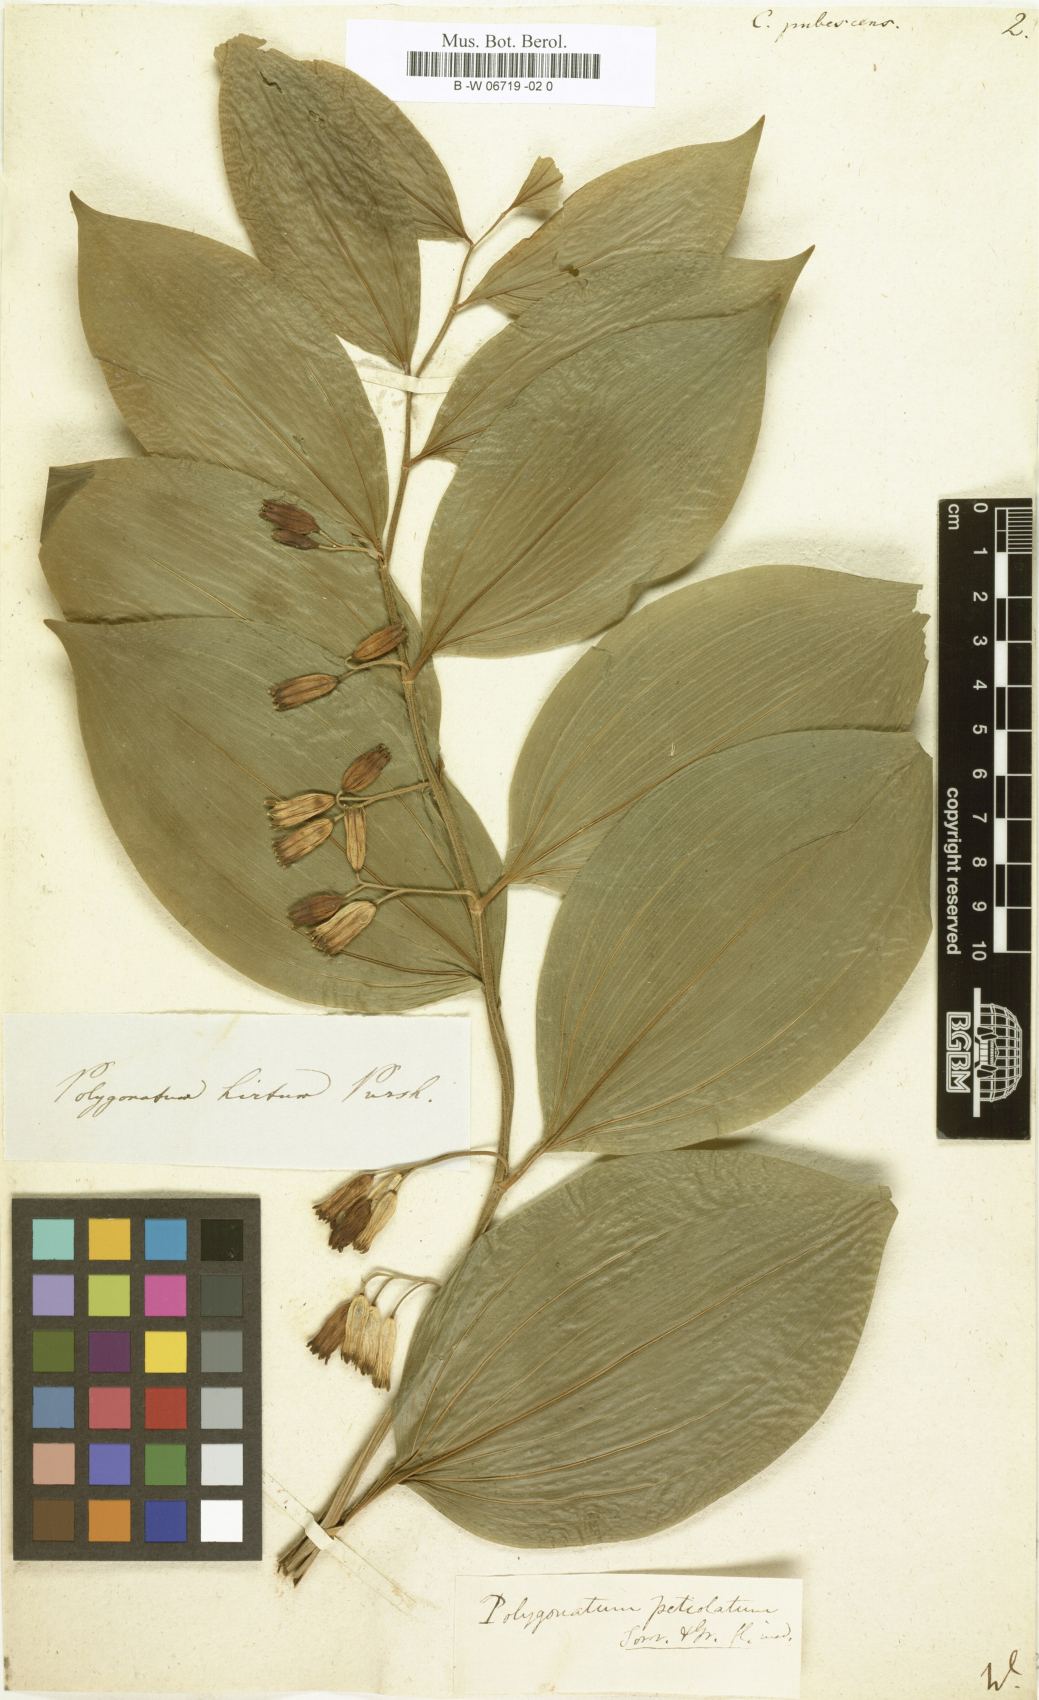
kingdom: Plantae
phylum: Tracheophyta
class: Liliopsida
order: Asparagales
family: Asparagaceae
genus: Polygonatum
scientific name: Polygonatum pubescens
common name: Downy solomon's seal
